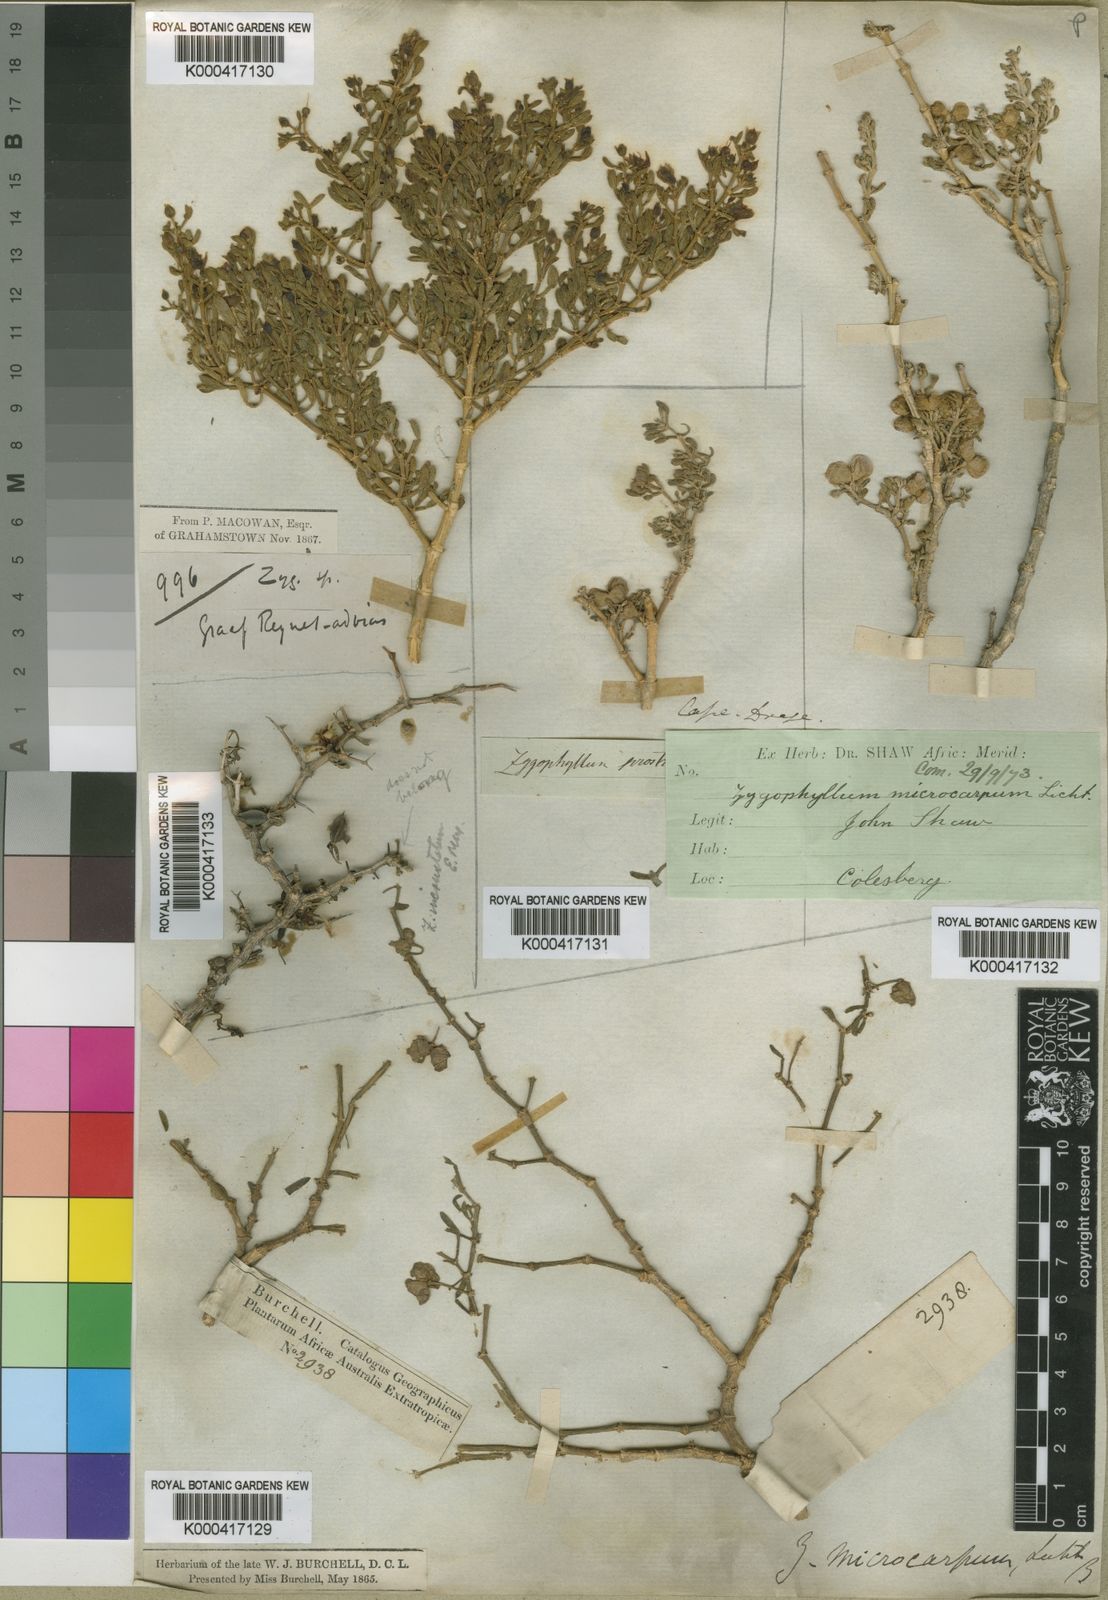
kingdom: Plantae
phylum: Tracheophyta
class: Magnoliopsida
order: Zygophyllales
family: Zygophyllaceae
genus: Tetraena
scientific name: Tetraena microcarpa
